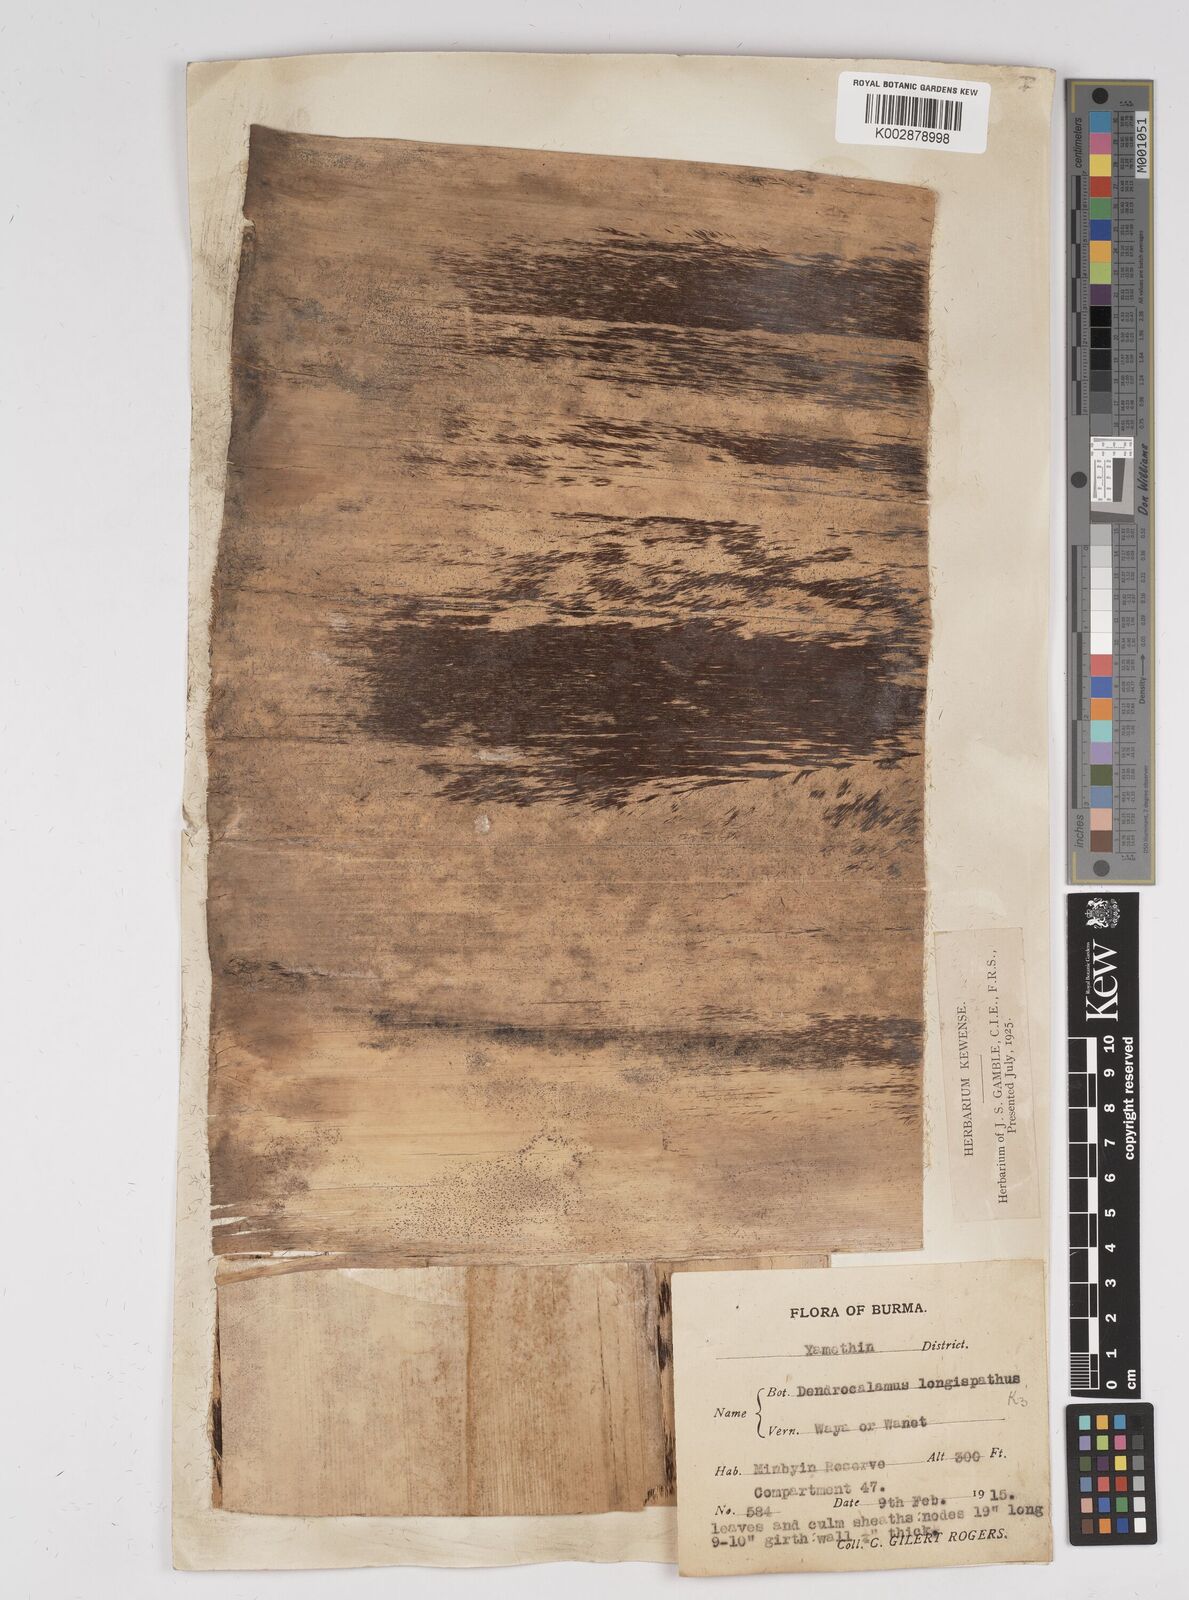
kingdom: Plantae
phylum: Tracheophyta
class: Liliopsida
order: Poales
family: Poaceae
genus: Dendrocalamus
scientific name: Dendrocalamus longispathus
